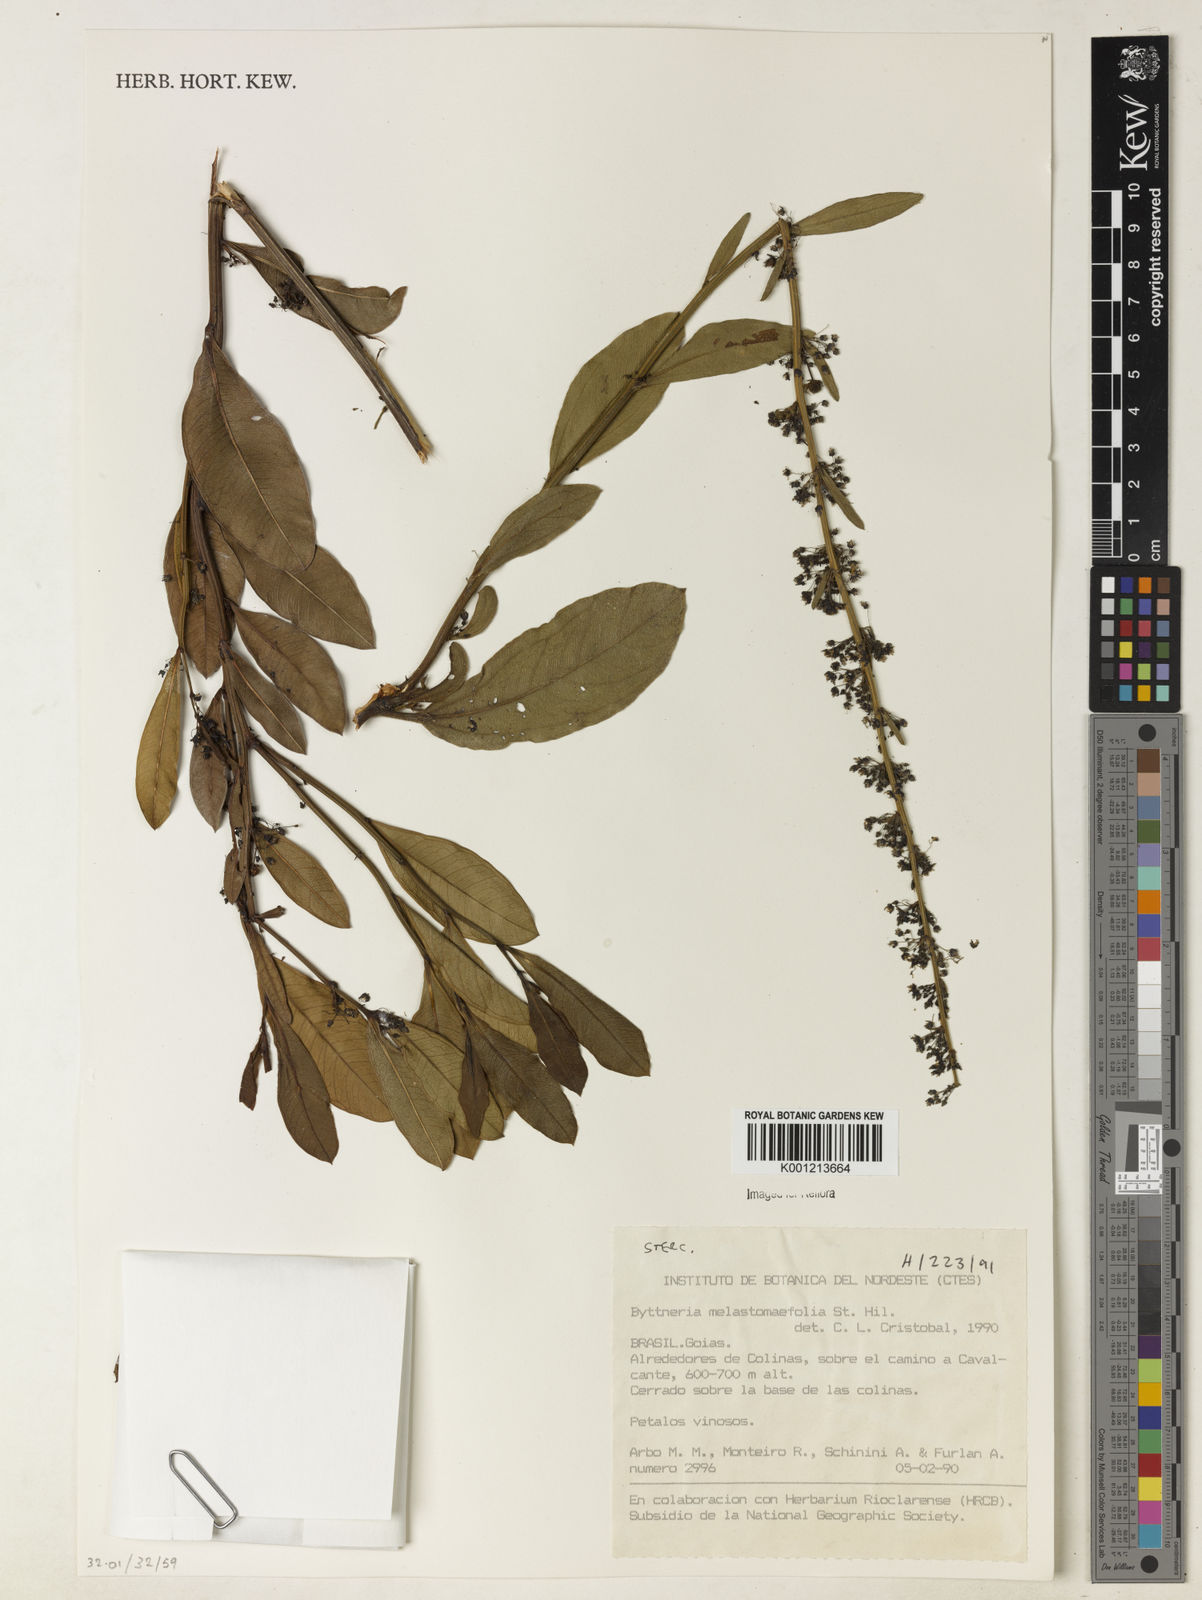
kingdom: Plantae
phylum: Tracheophyta
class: Magnoliopsida
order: Malvales
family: Malvaceae
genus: Byttneria
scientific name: Byttneria melastomifolia
